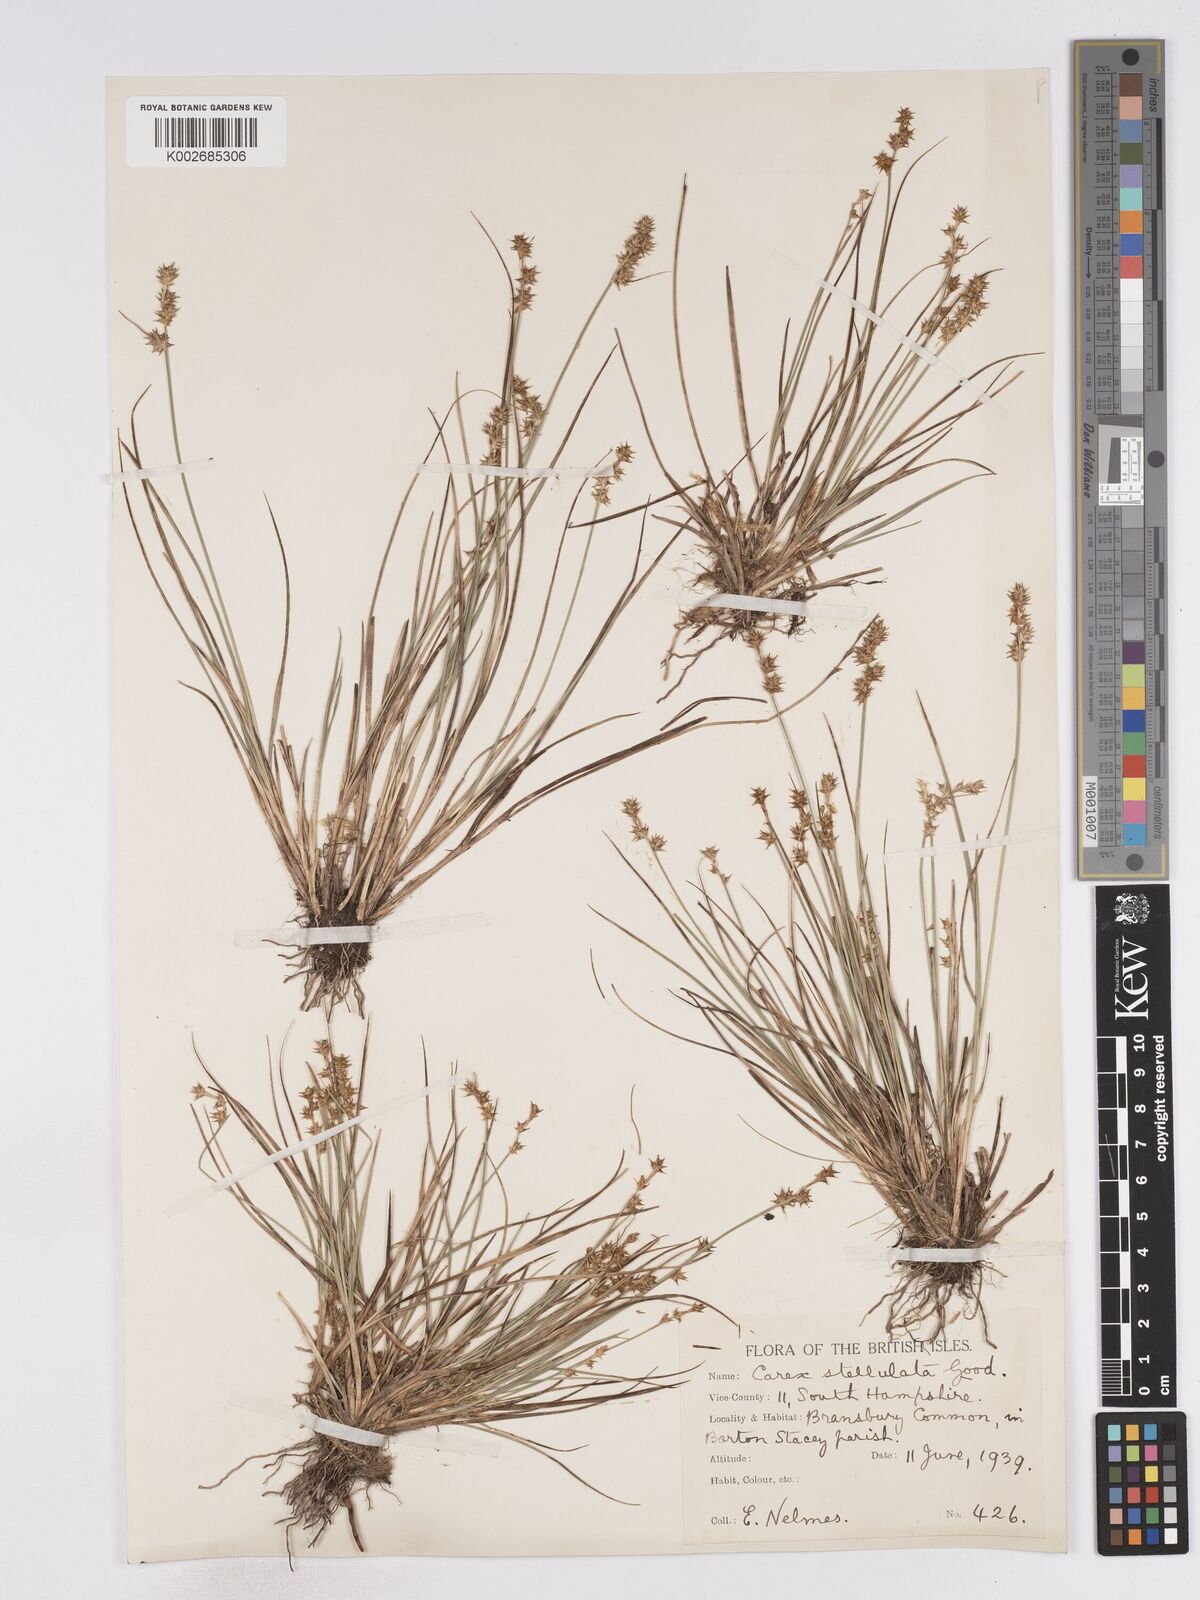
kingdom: Plantae
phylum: Tracheophyta
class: Liliopsida
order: Poales
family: Cyperaceae
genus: Carex
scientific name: Carex echinata
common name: Star sedge
